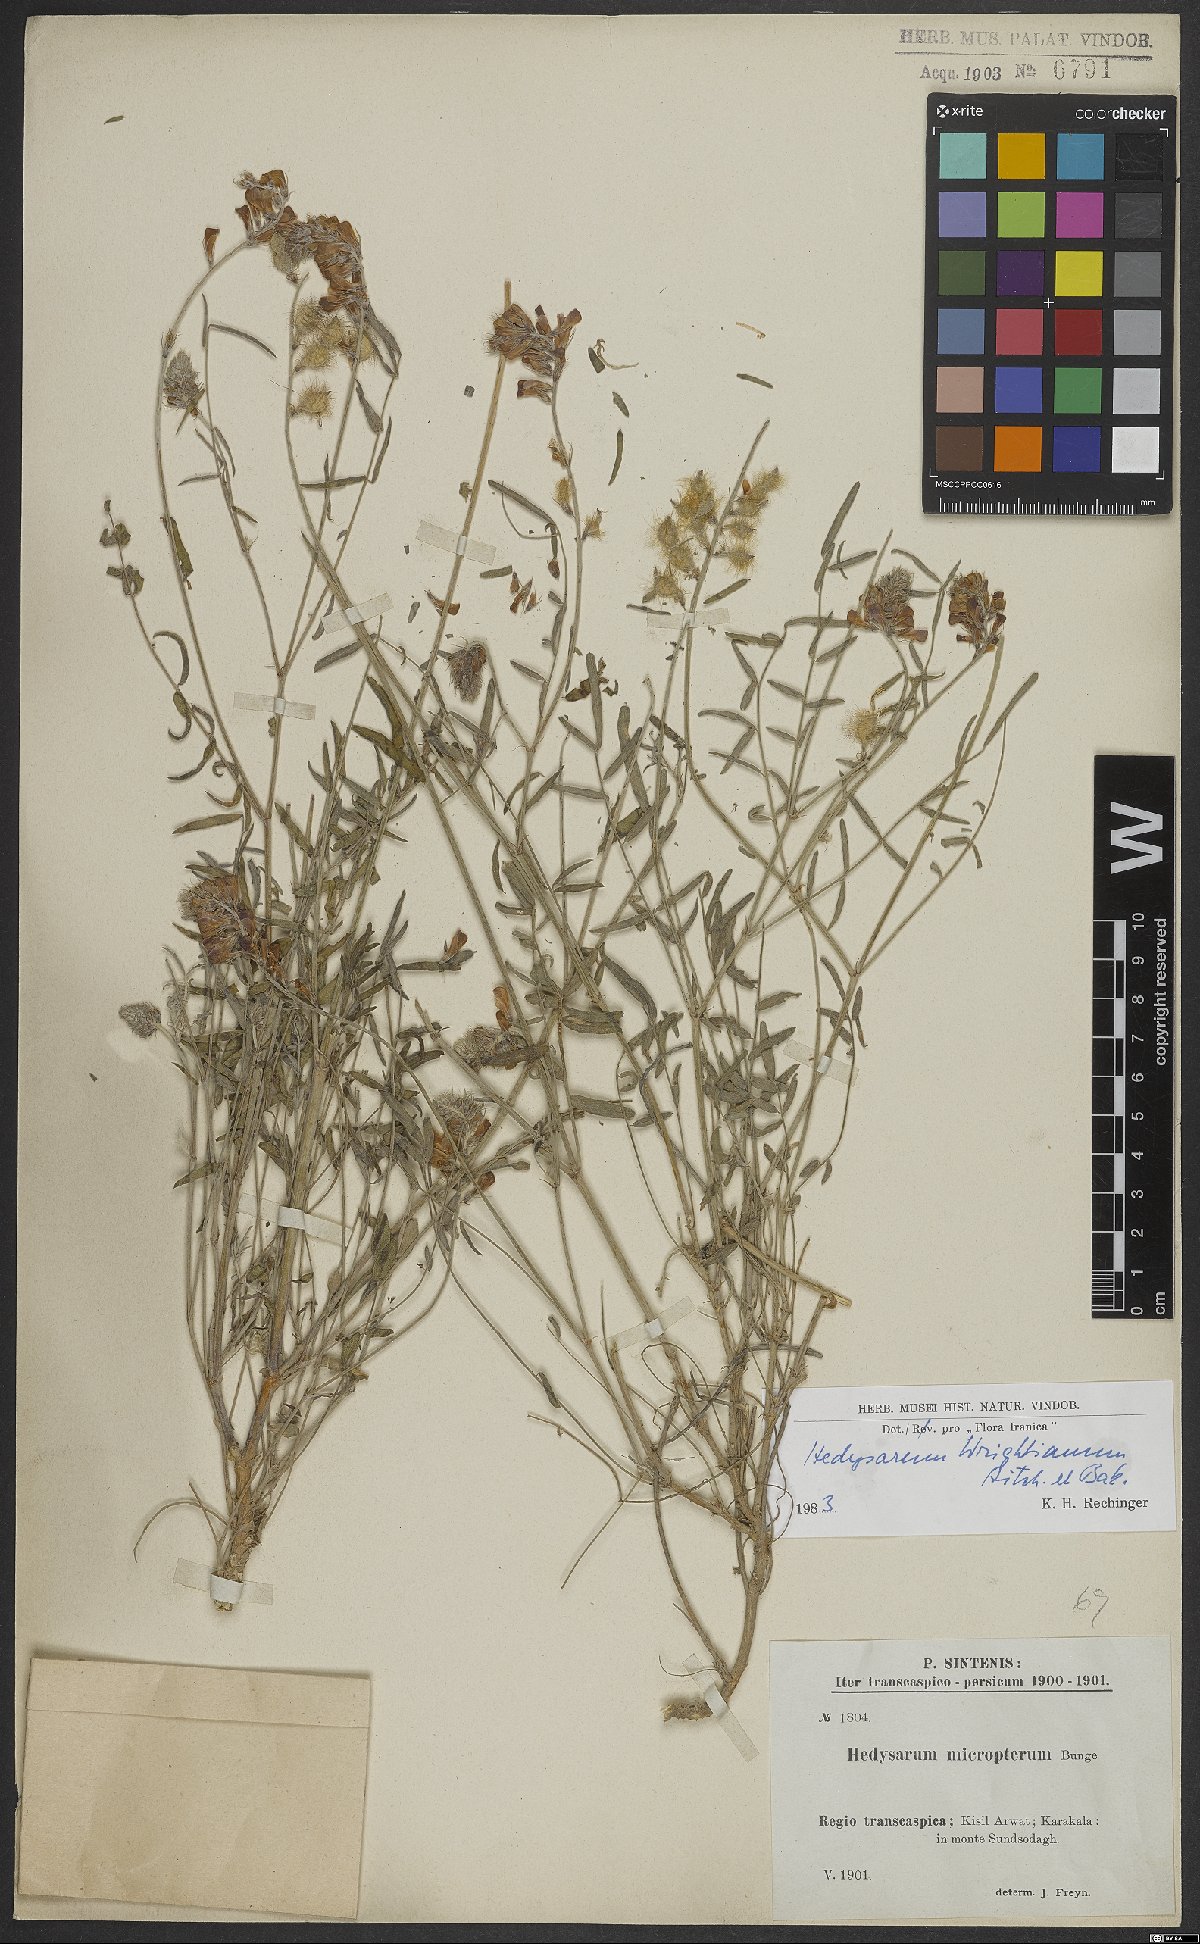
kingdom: Plantae
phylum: Tracheophyta
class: Magnoliopsida
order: Fabales
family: Fabaceae
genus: Hedysarum
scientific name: Hedysarum micropterum
